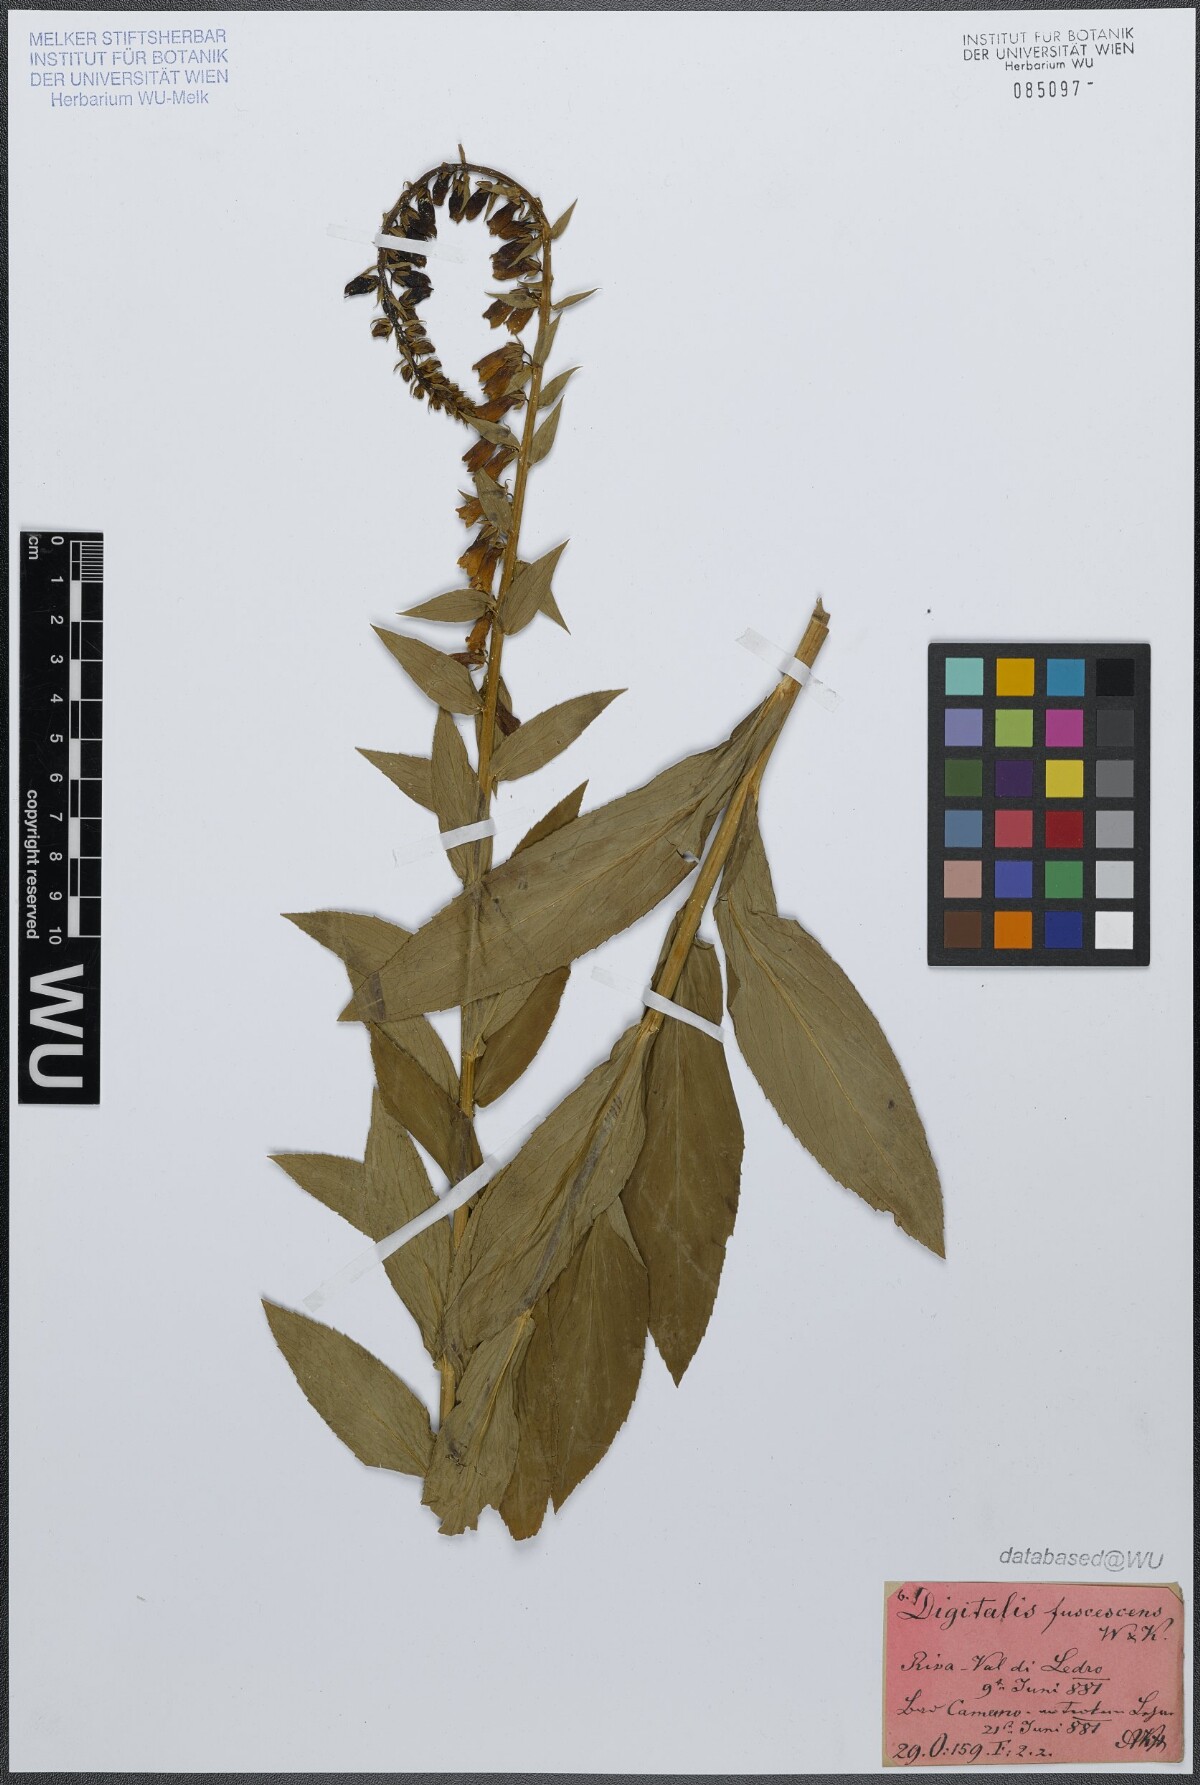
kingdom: Plantae
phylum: Tracheophyta
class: Magnoliopsida
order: Lamiales
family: Plantaginaceae
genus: Digitalis
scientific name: Digitalis fulva
